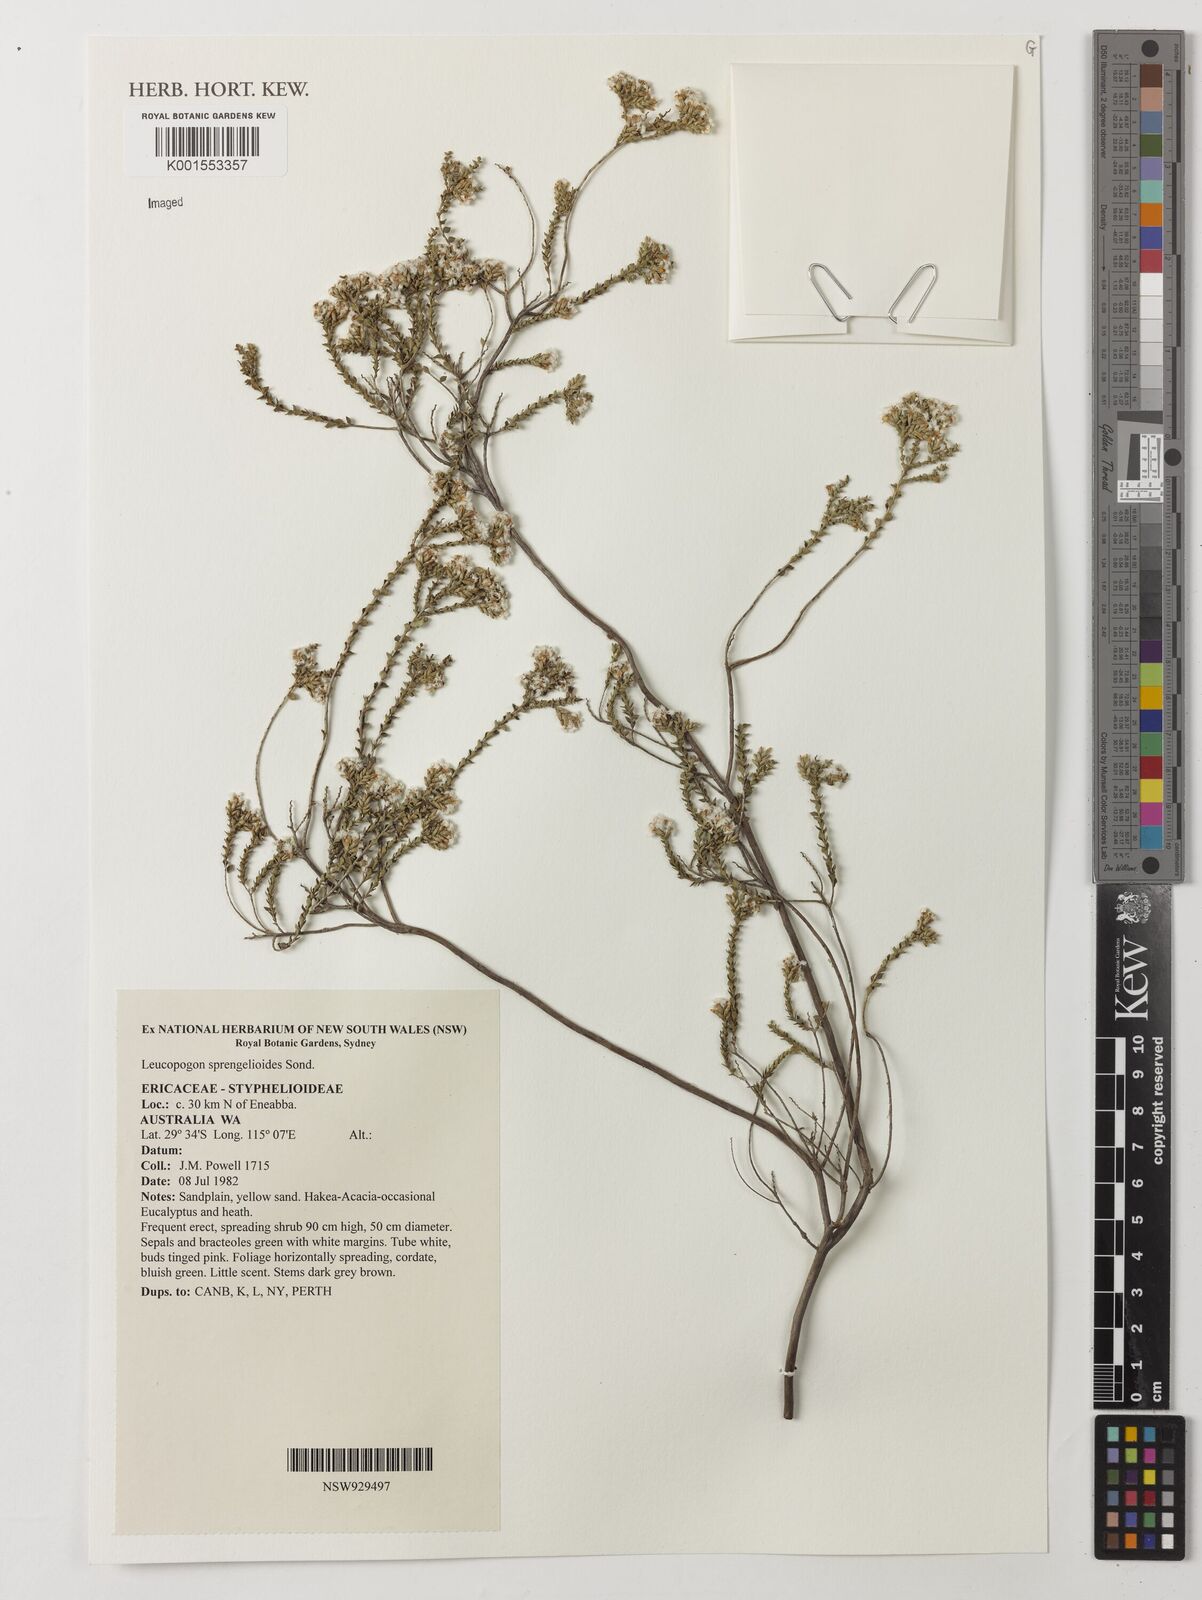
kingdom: Plantae
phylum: Tracheophyta
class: Magnoliopsida
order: Ericales
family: Ericaceae
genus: Leucopogon
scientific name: Leucopogon sprengelioides
